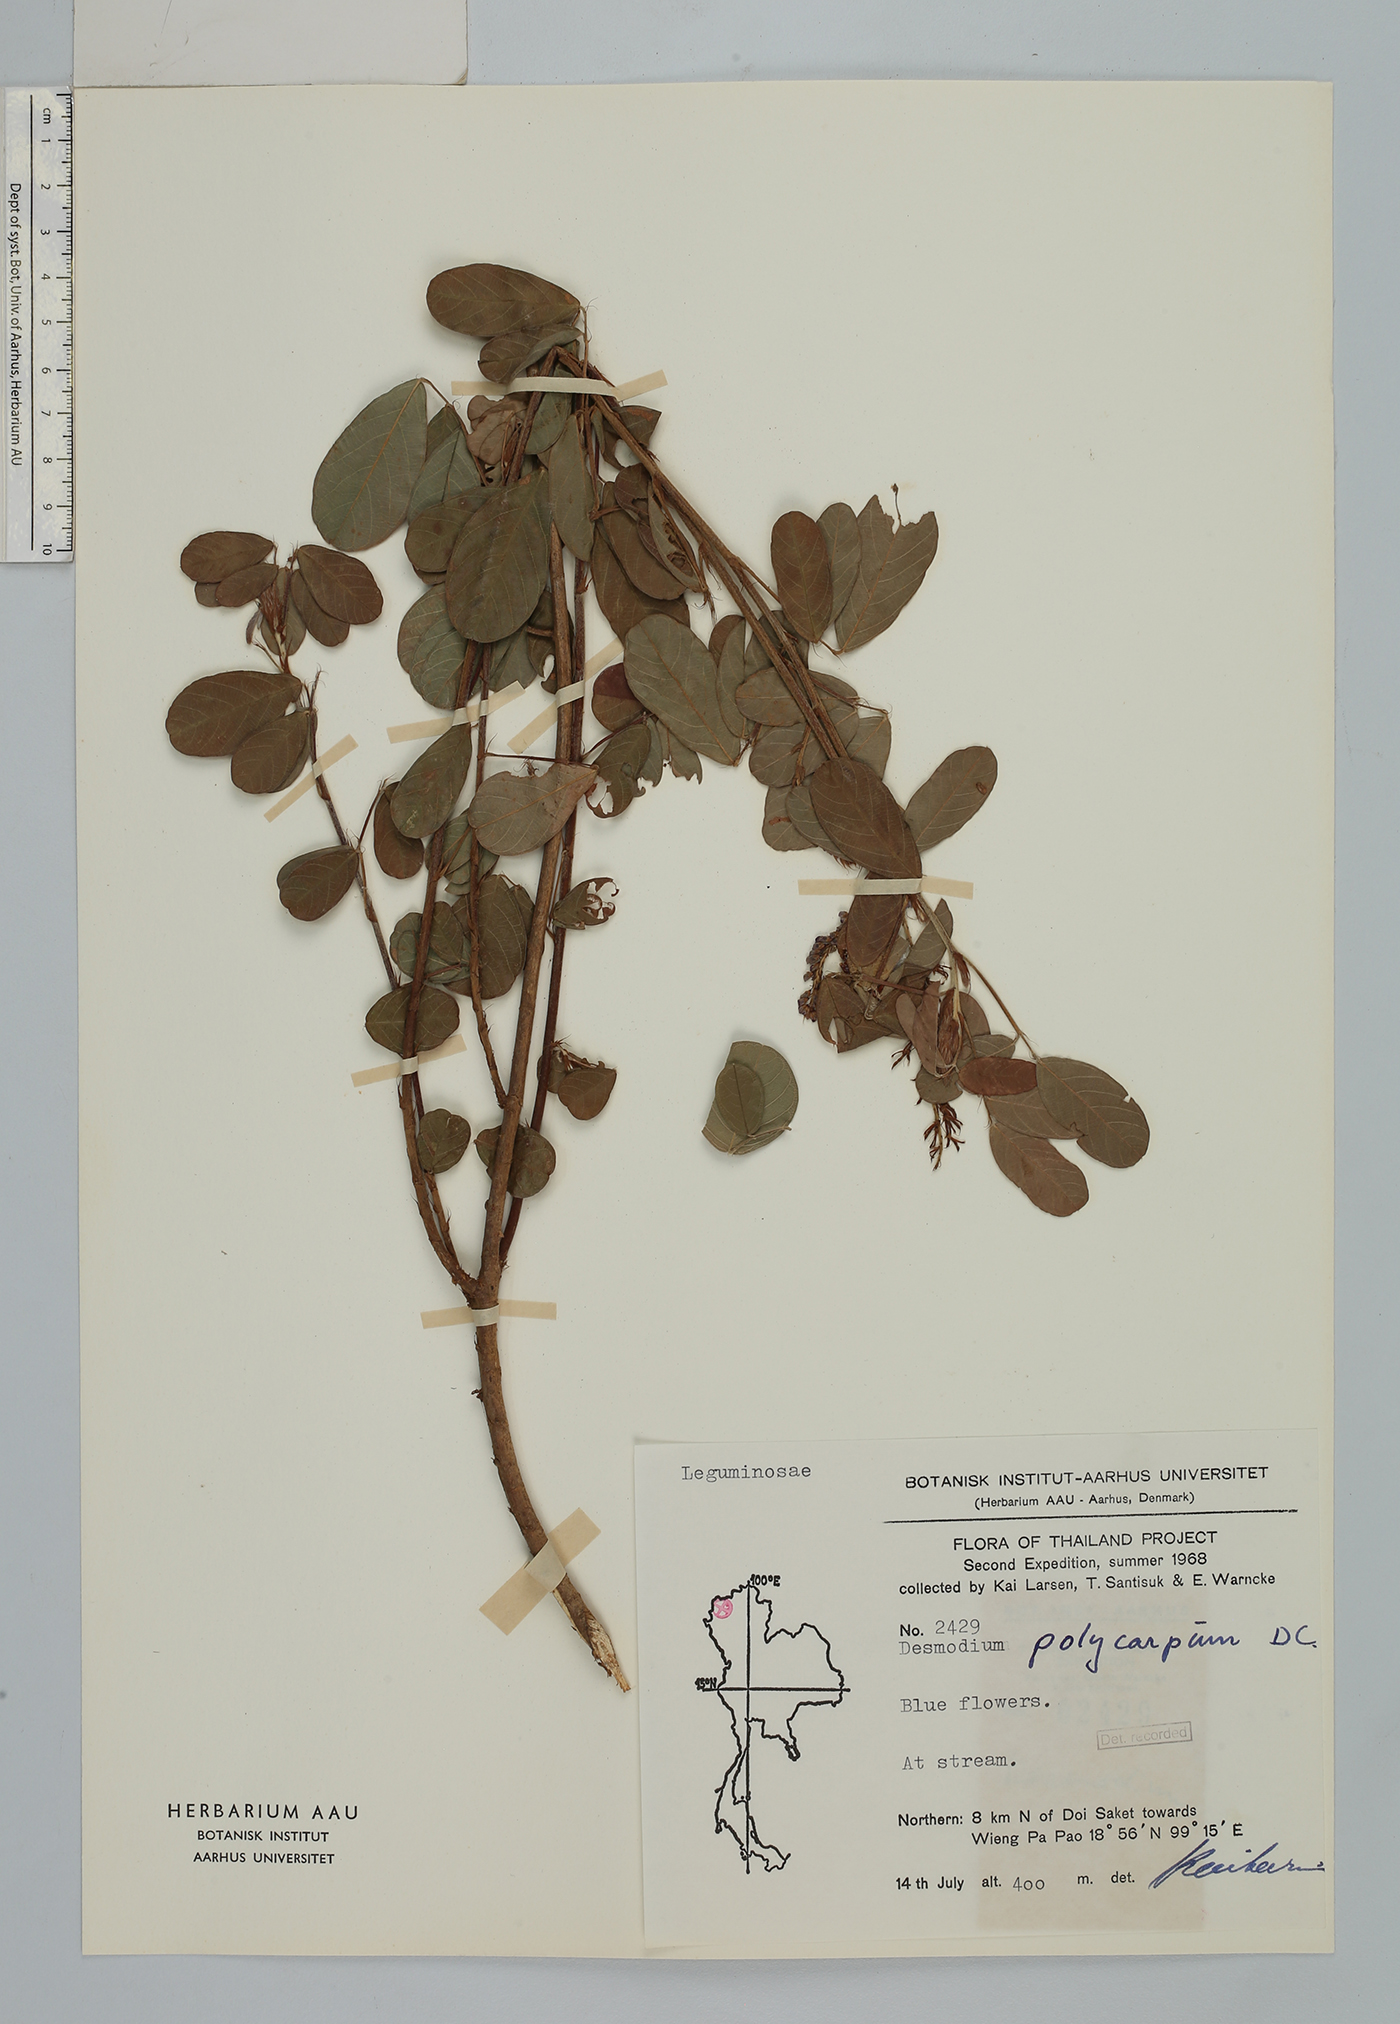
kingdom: Plantae
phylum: Tracheophyta
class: Magnoliopsida
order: Fabales
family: Fabaceae
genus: Grona
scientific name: Grona heterocarpos
